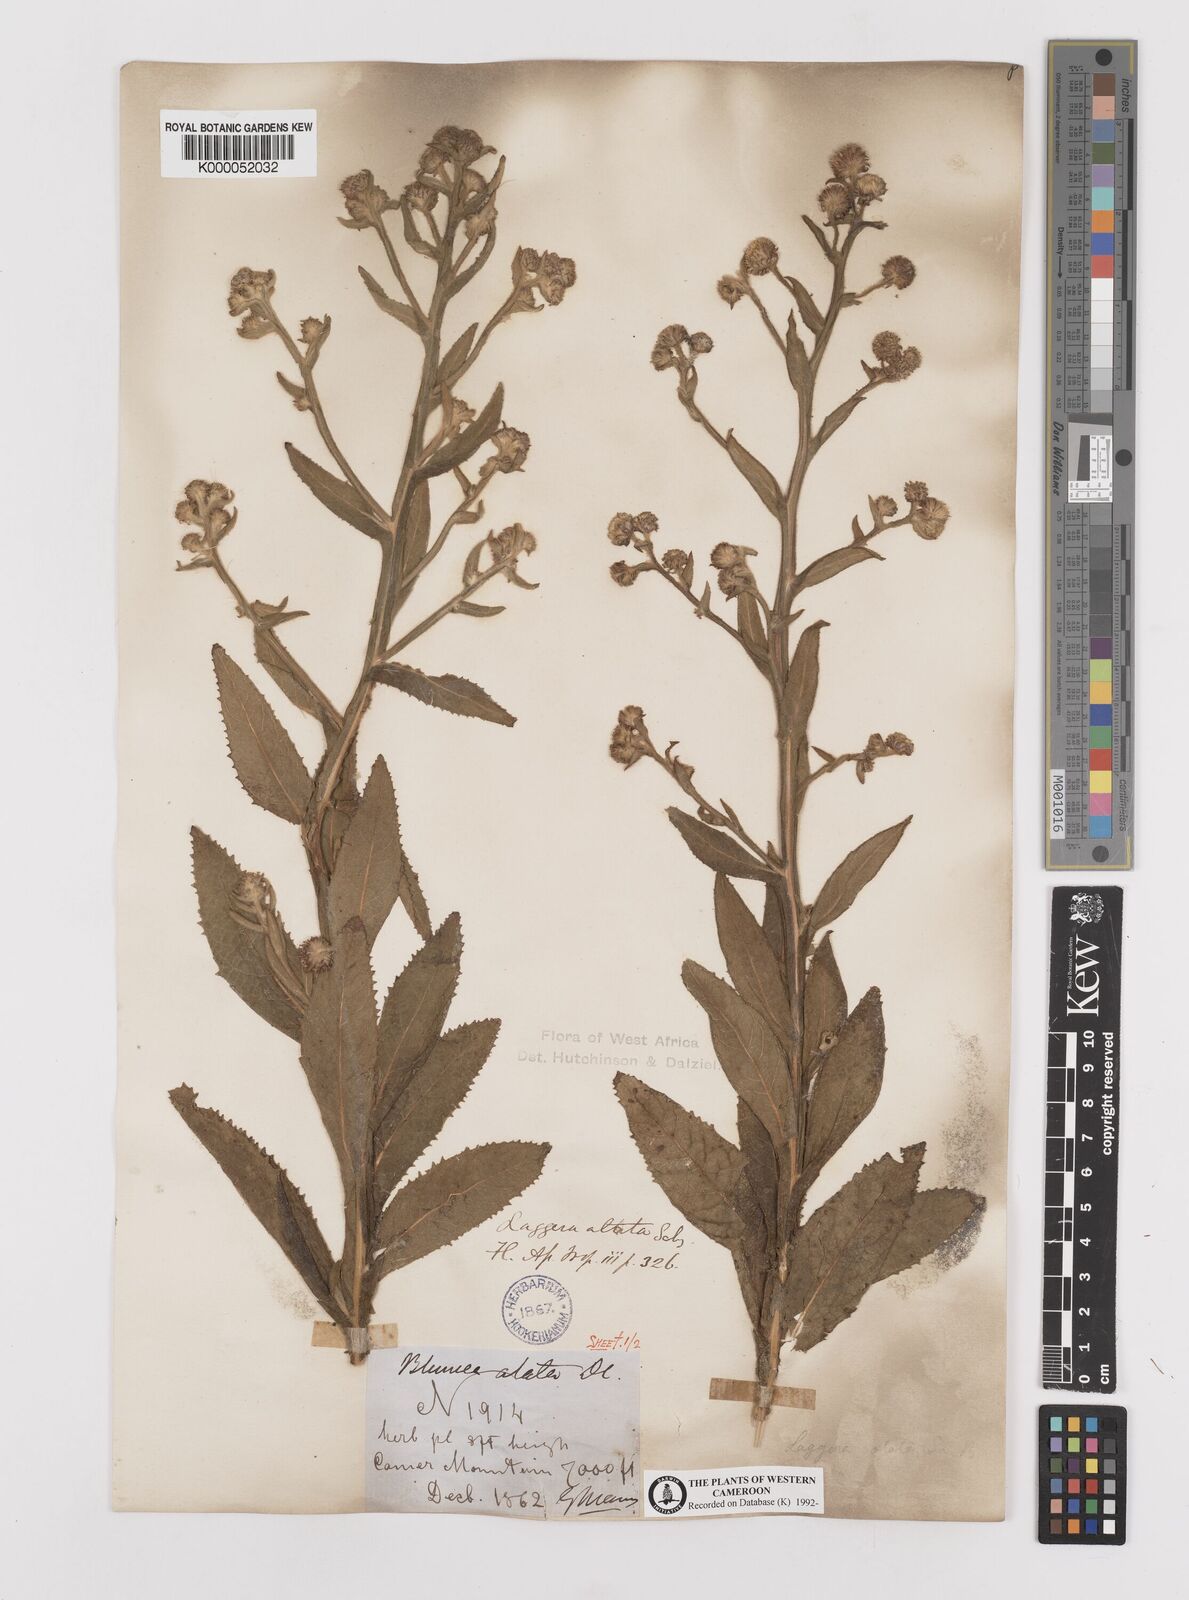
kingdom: Plantae
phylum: Tracheophyta
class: Magnoliopsida
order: Asterales
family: Asteraceae
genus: Laggera
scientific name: Laggera crispata
